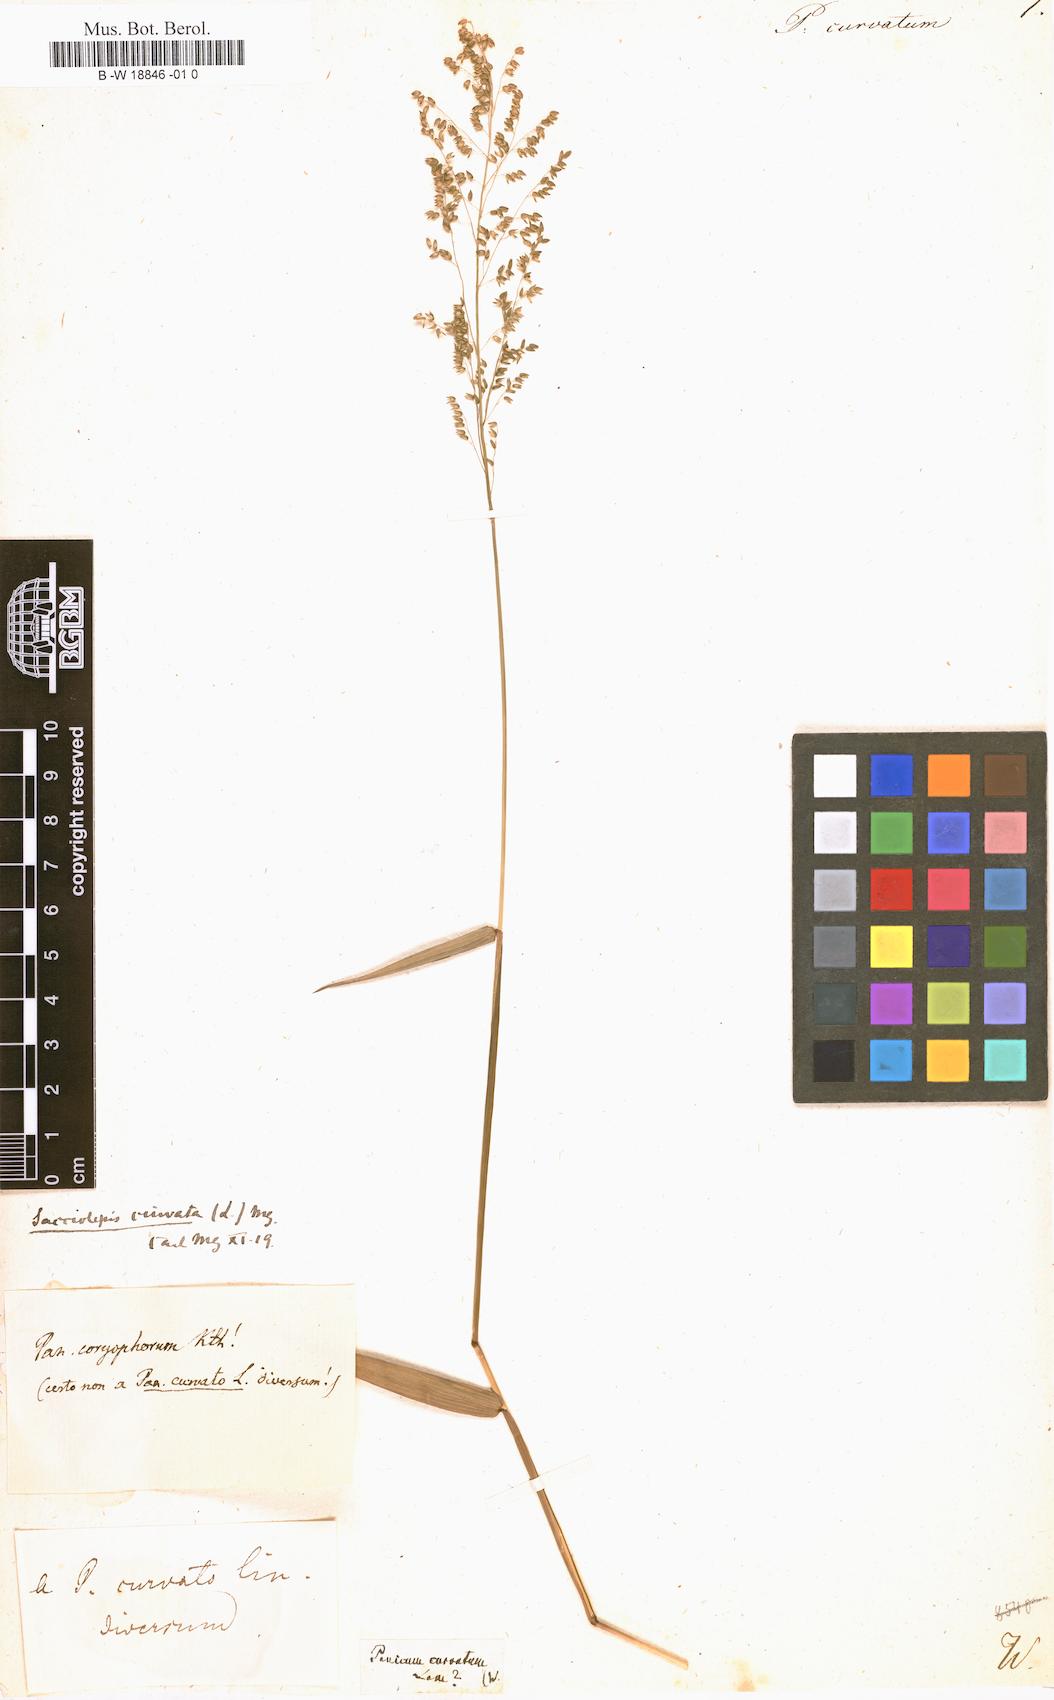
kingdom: Plantae
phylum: Tracheophyta
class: Liliopsida
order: Poales
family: Poaceae
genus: Sacciolepis
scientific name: Sacciolepis curvata
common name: Forest hood grass
